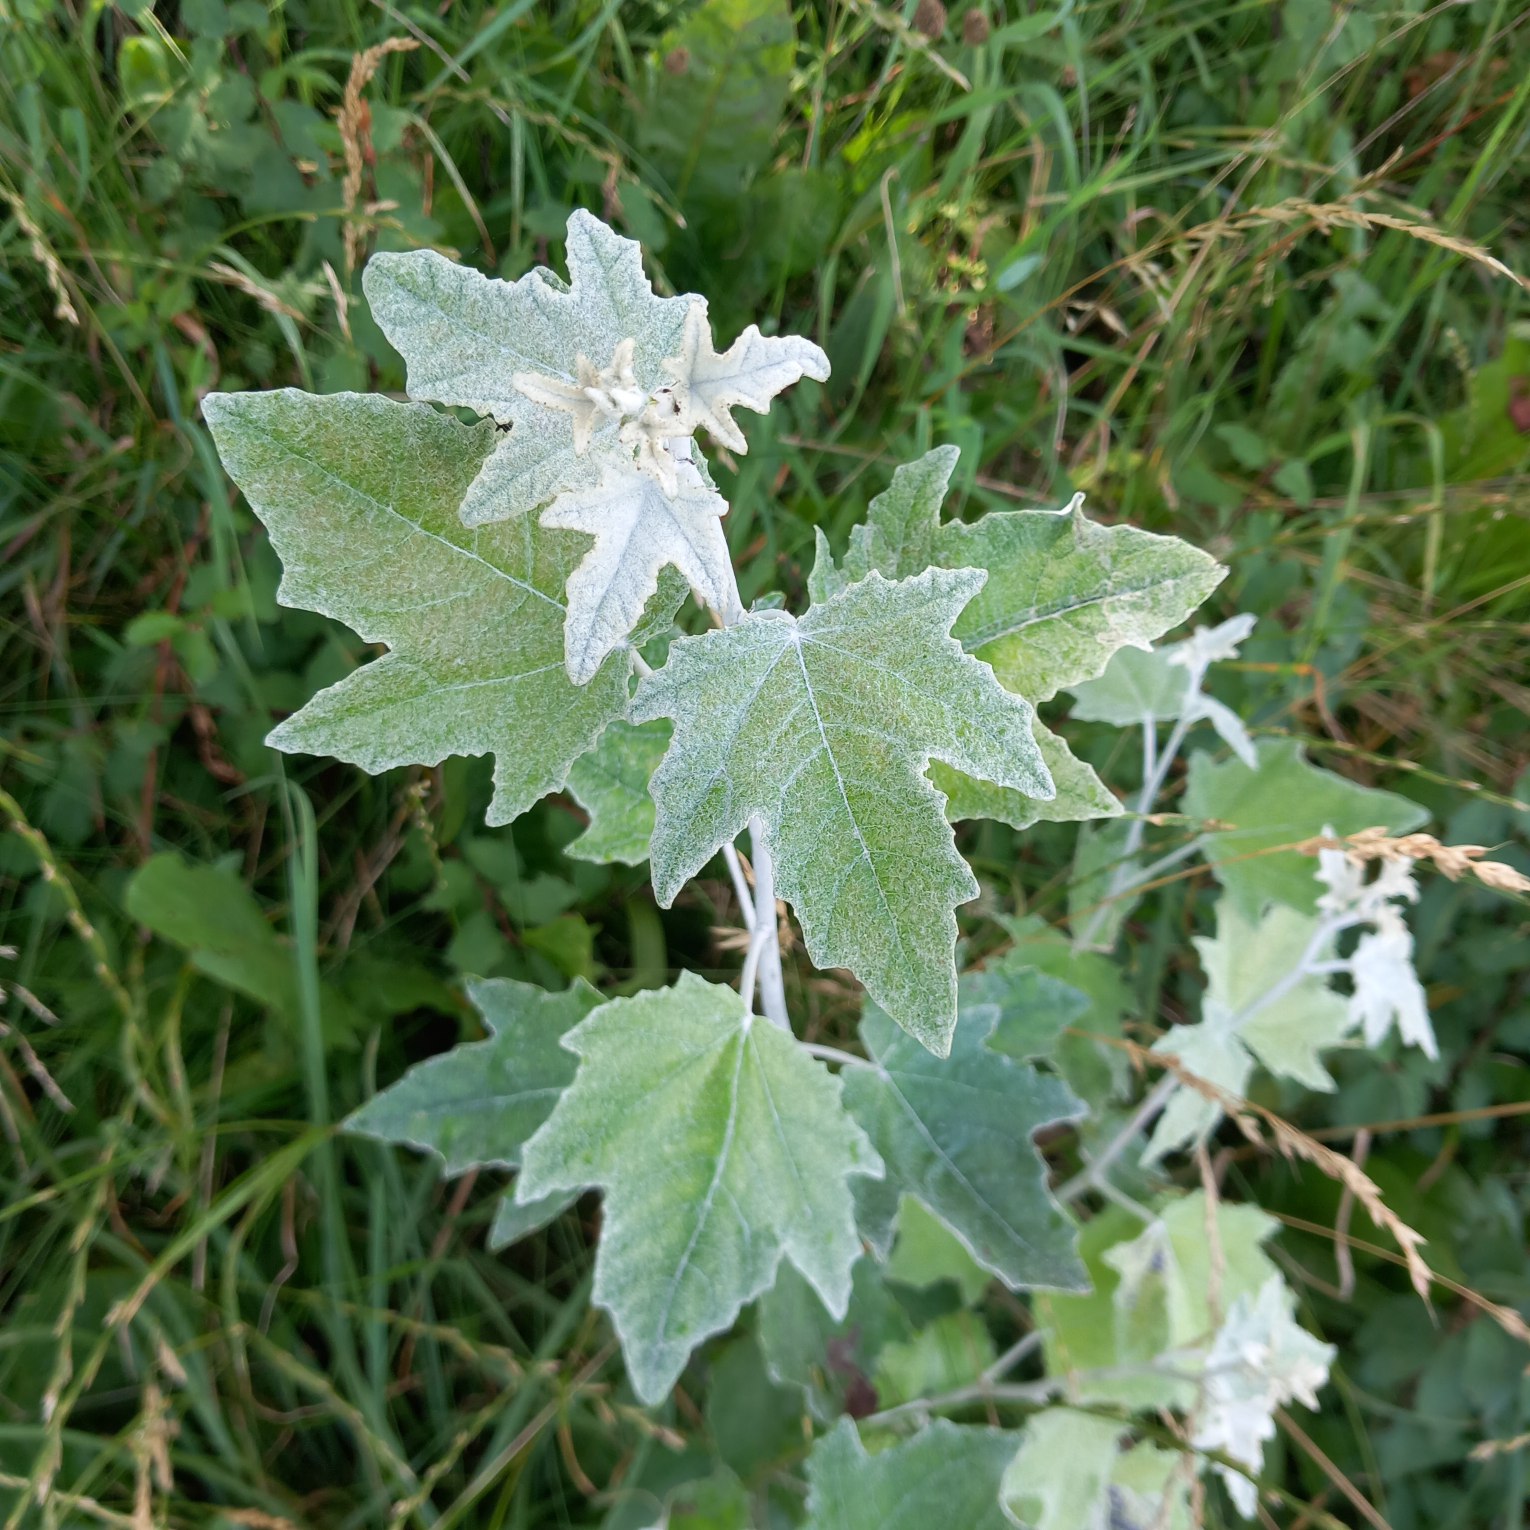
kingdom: Plantae
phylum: Tracheophyta
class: Magnoliopsida
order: Malpighiales
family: Salicaceae
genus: Populus
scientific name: Populus alba
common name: Sølv-poppel
